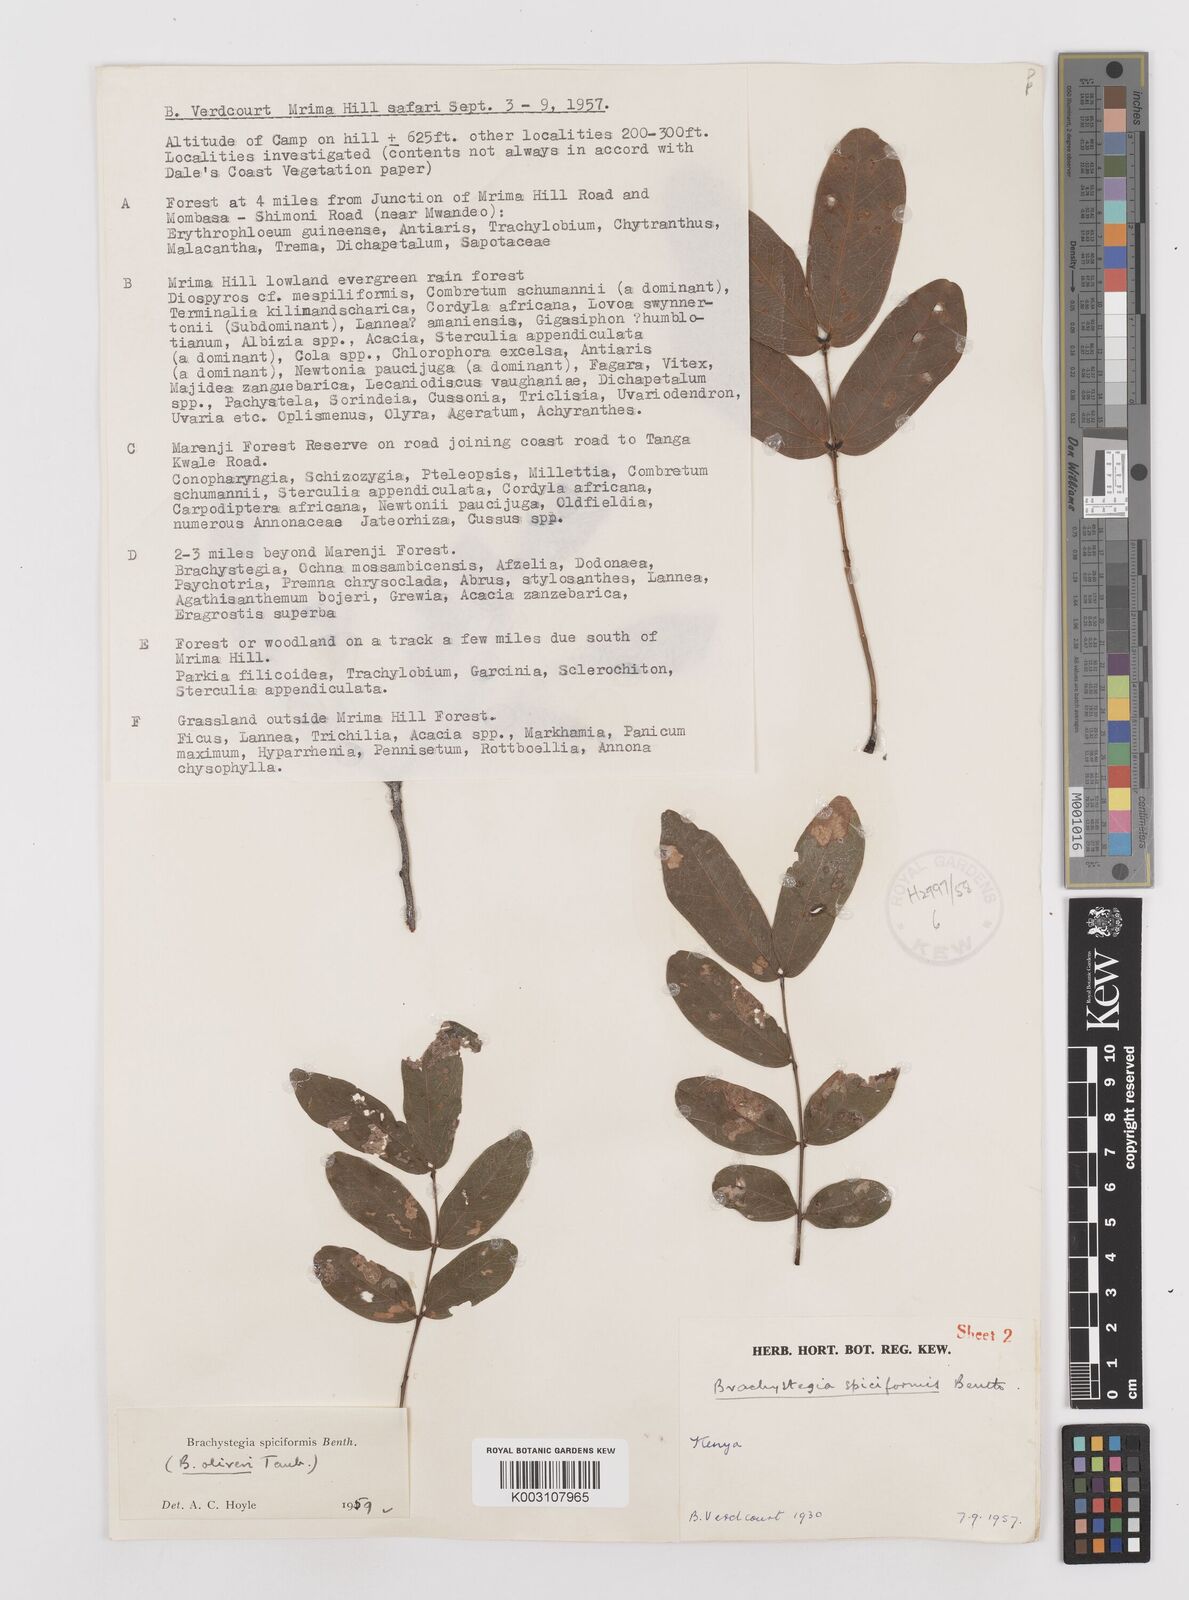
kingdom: Plantae
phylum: Tracheophyta
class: Magnoliopsida
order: Fabales
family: Fabaceae
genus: Brachystegia
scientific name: Brachystegia spiciformis
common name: Zebrawood
